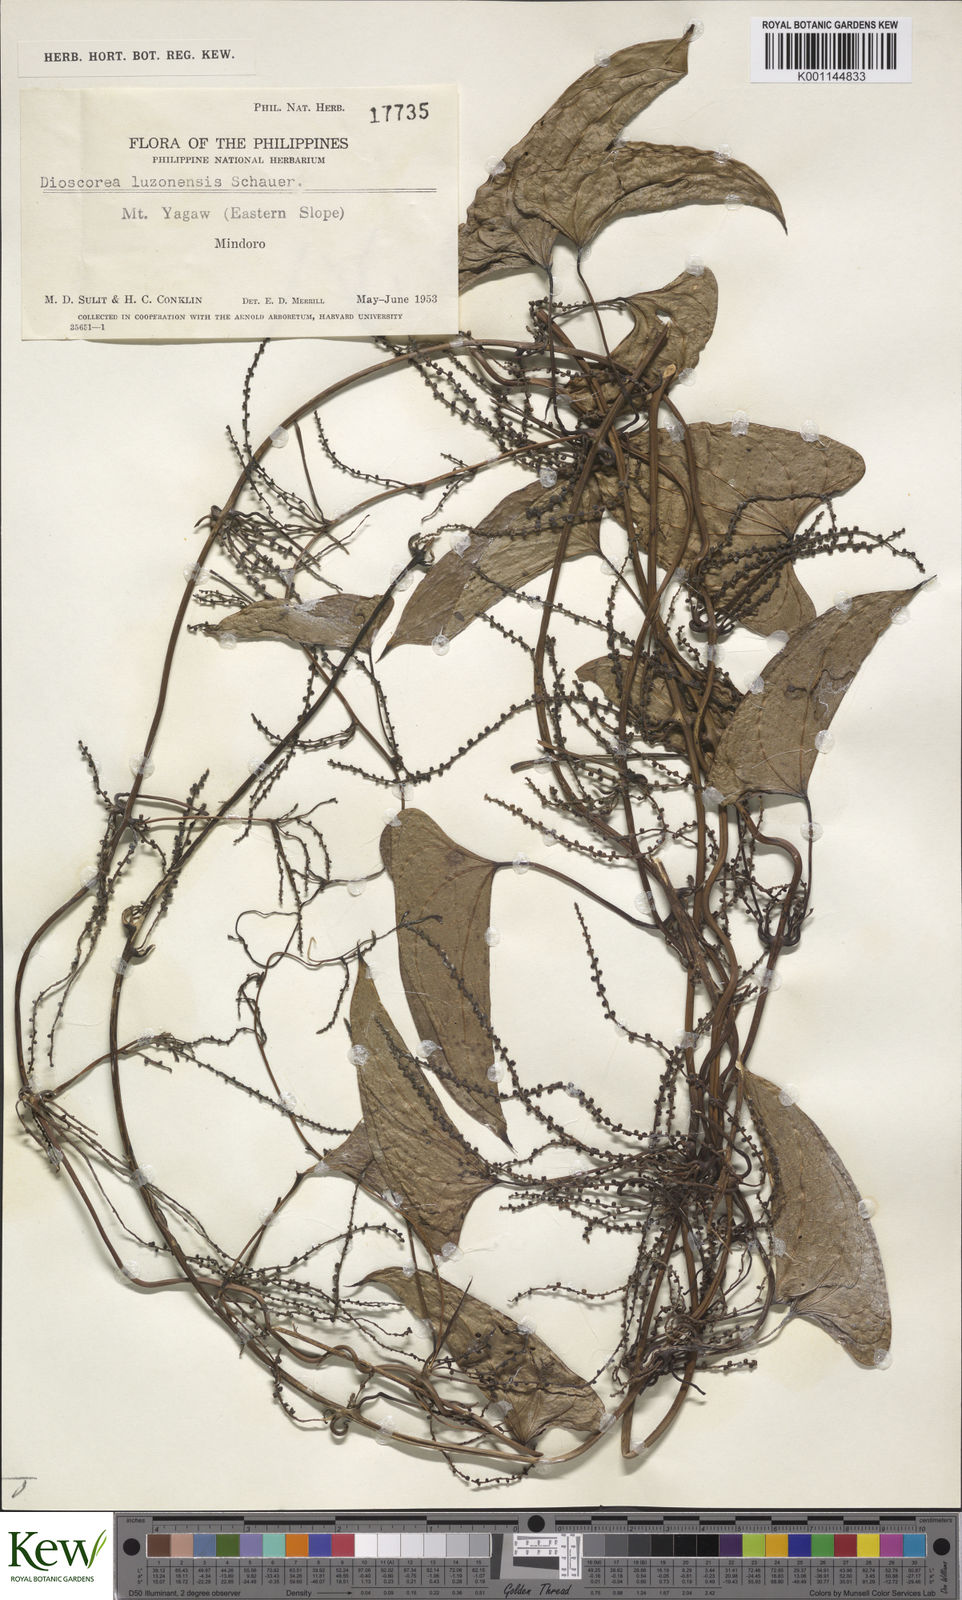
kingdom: Plantae
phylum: Tracheophyta
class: Liliopsida
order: Dioscoreales
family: Dioscoreaceae
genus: Dioscorea
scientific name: Dioscorea
